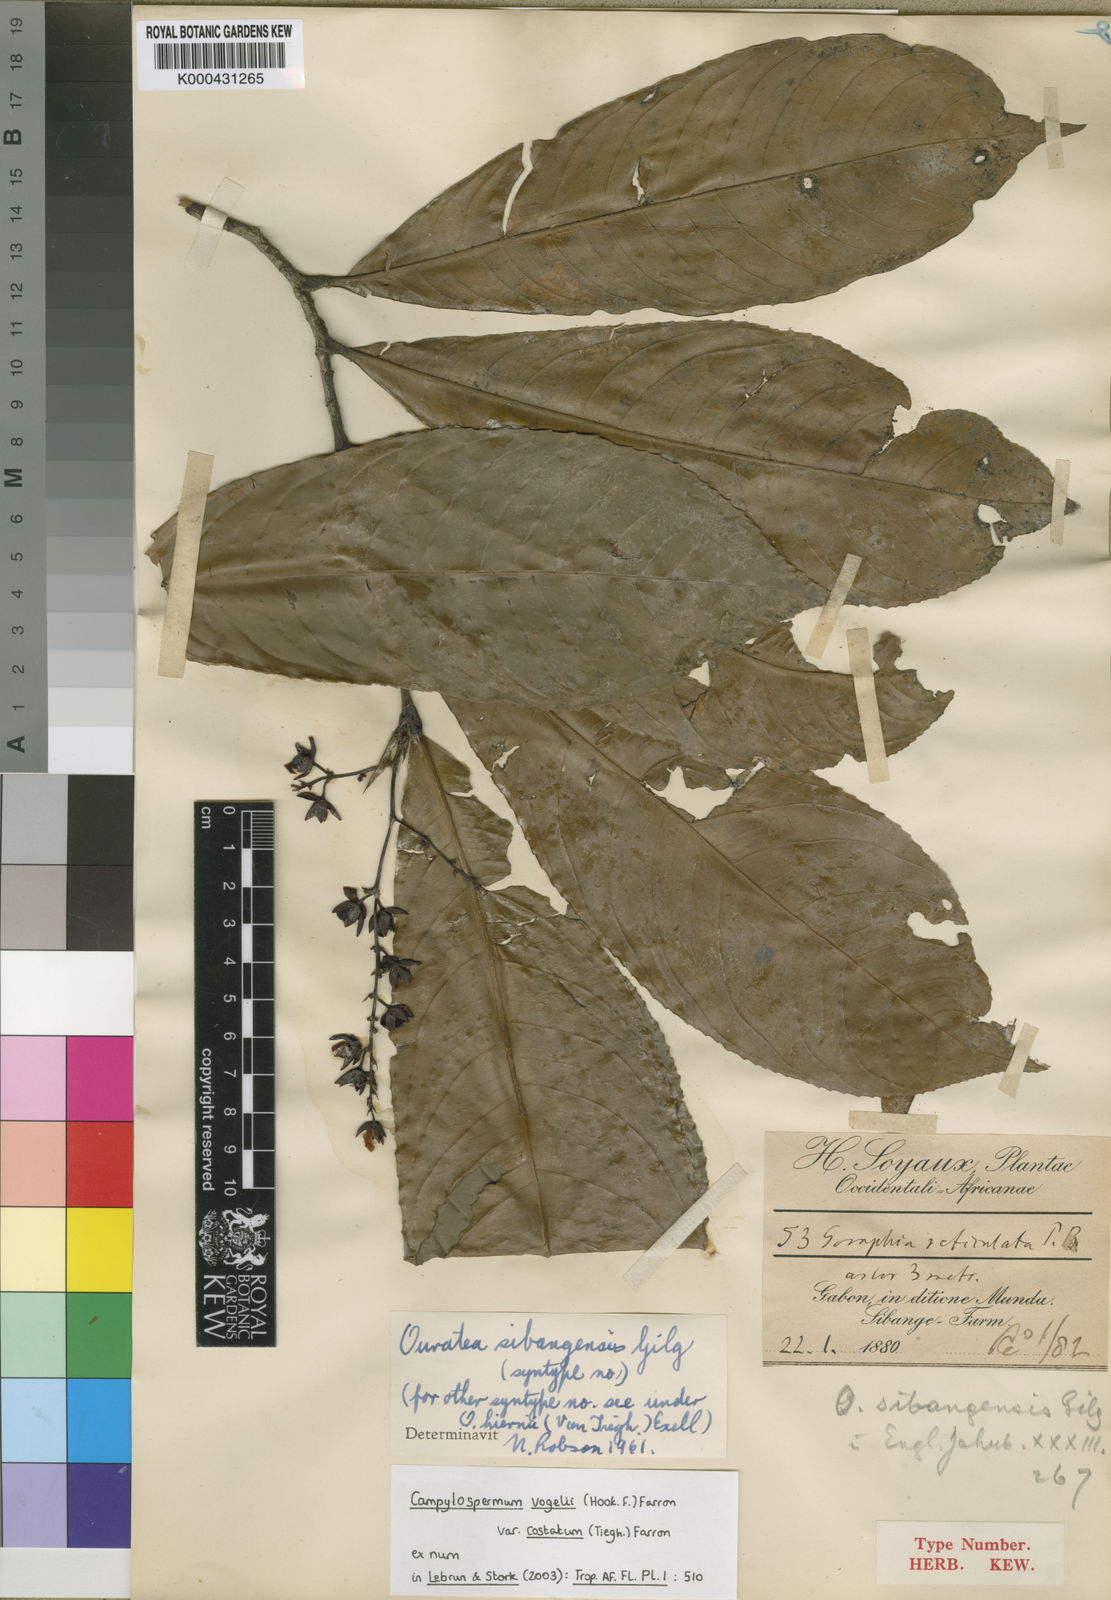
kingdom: Plantae
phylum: Tracheophyta
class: Magnoliopsida
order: Malpighiales
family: Ochnaceae
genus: Campylospermum
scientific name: Campylospermum vogelii
